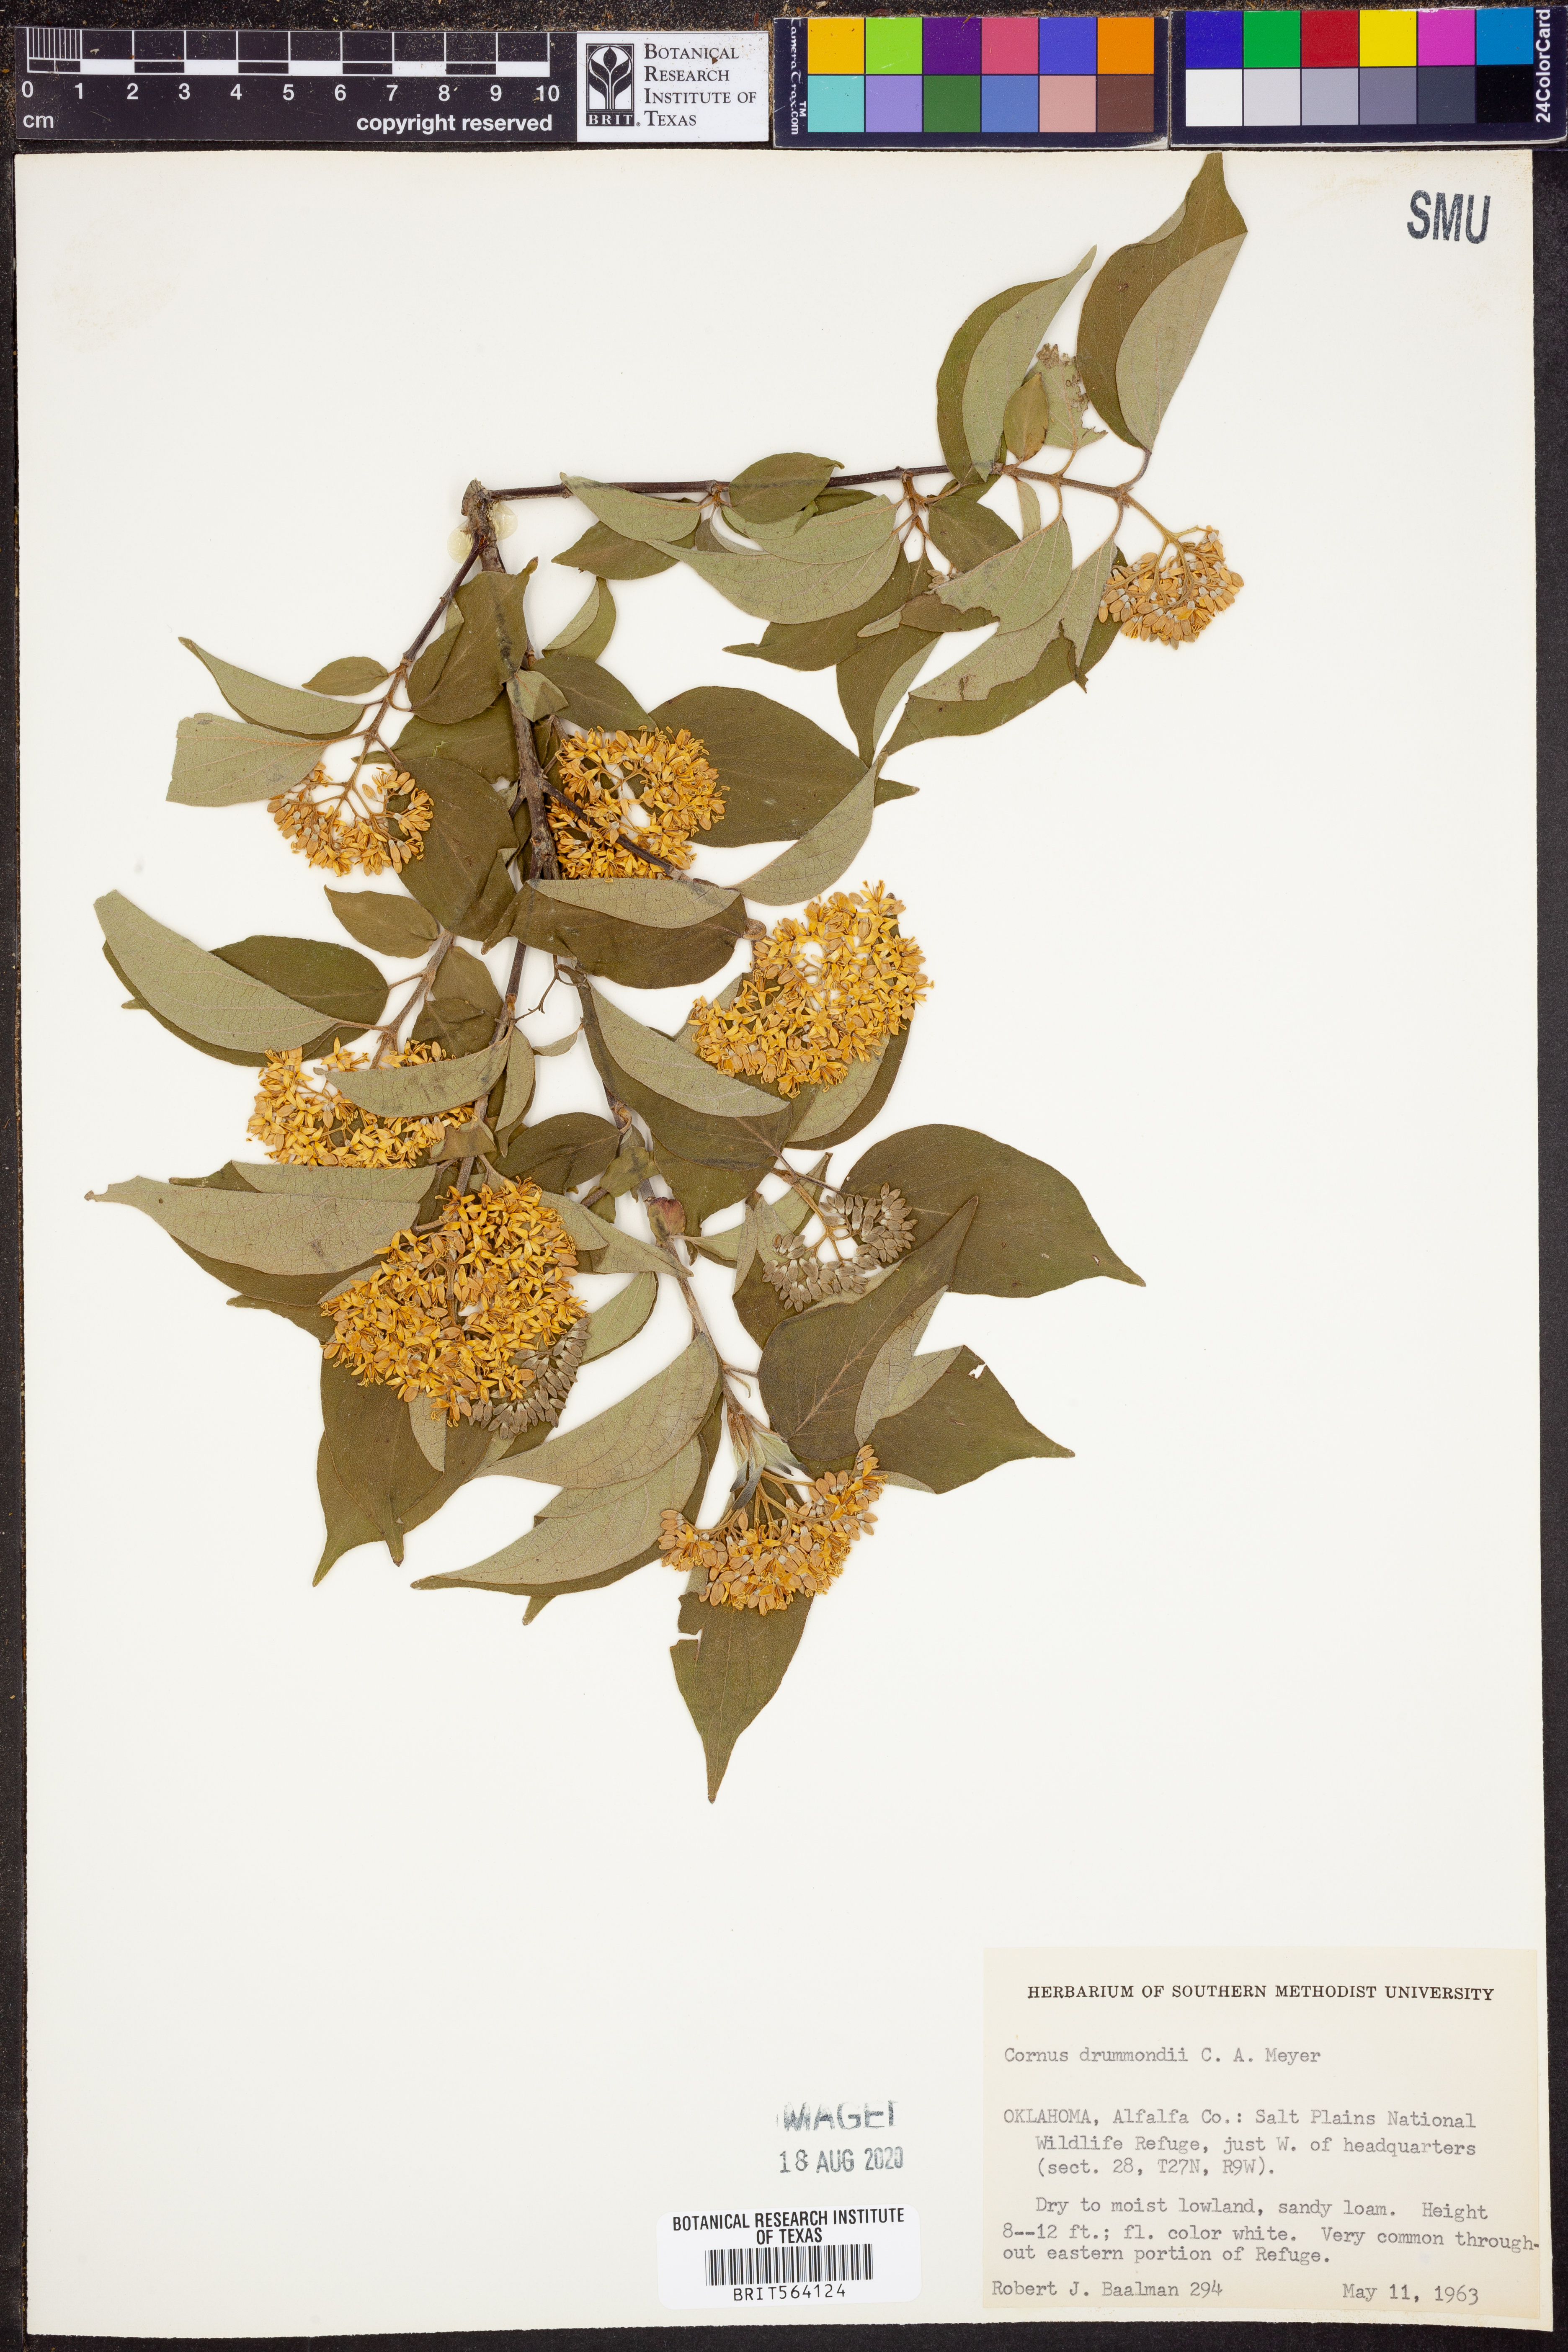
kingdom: Plantae
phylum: Tracheophyta
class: Magnoliopsida
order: Cornales
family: Cornaceae
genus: Cornus
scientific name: Cornus drummondii
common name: Rough-leaf dogwood
